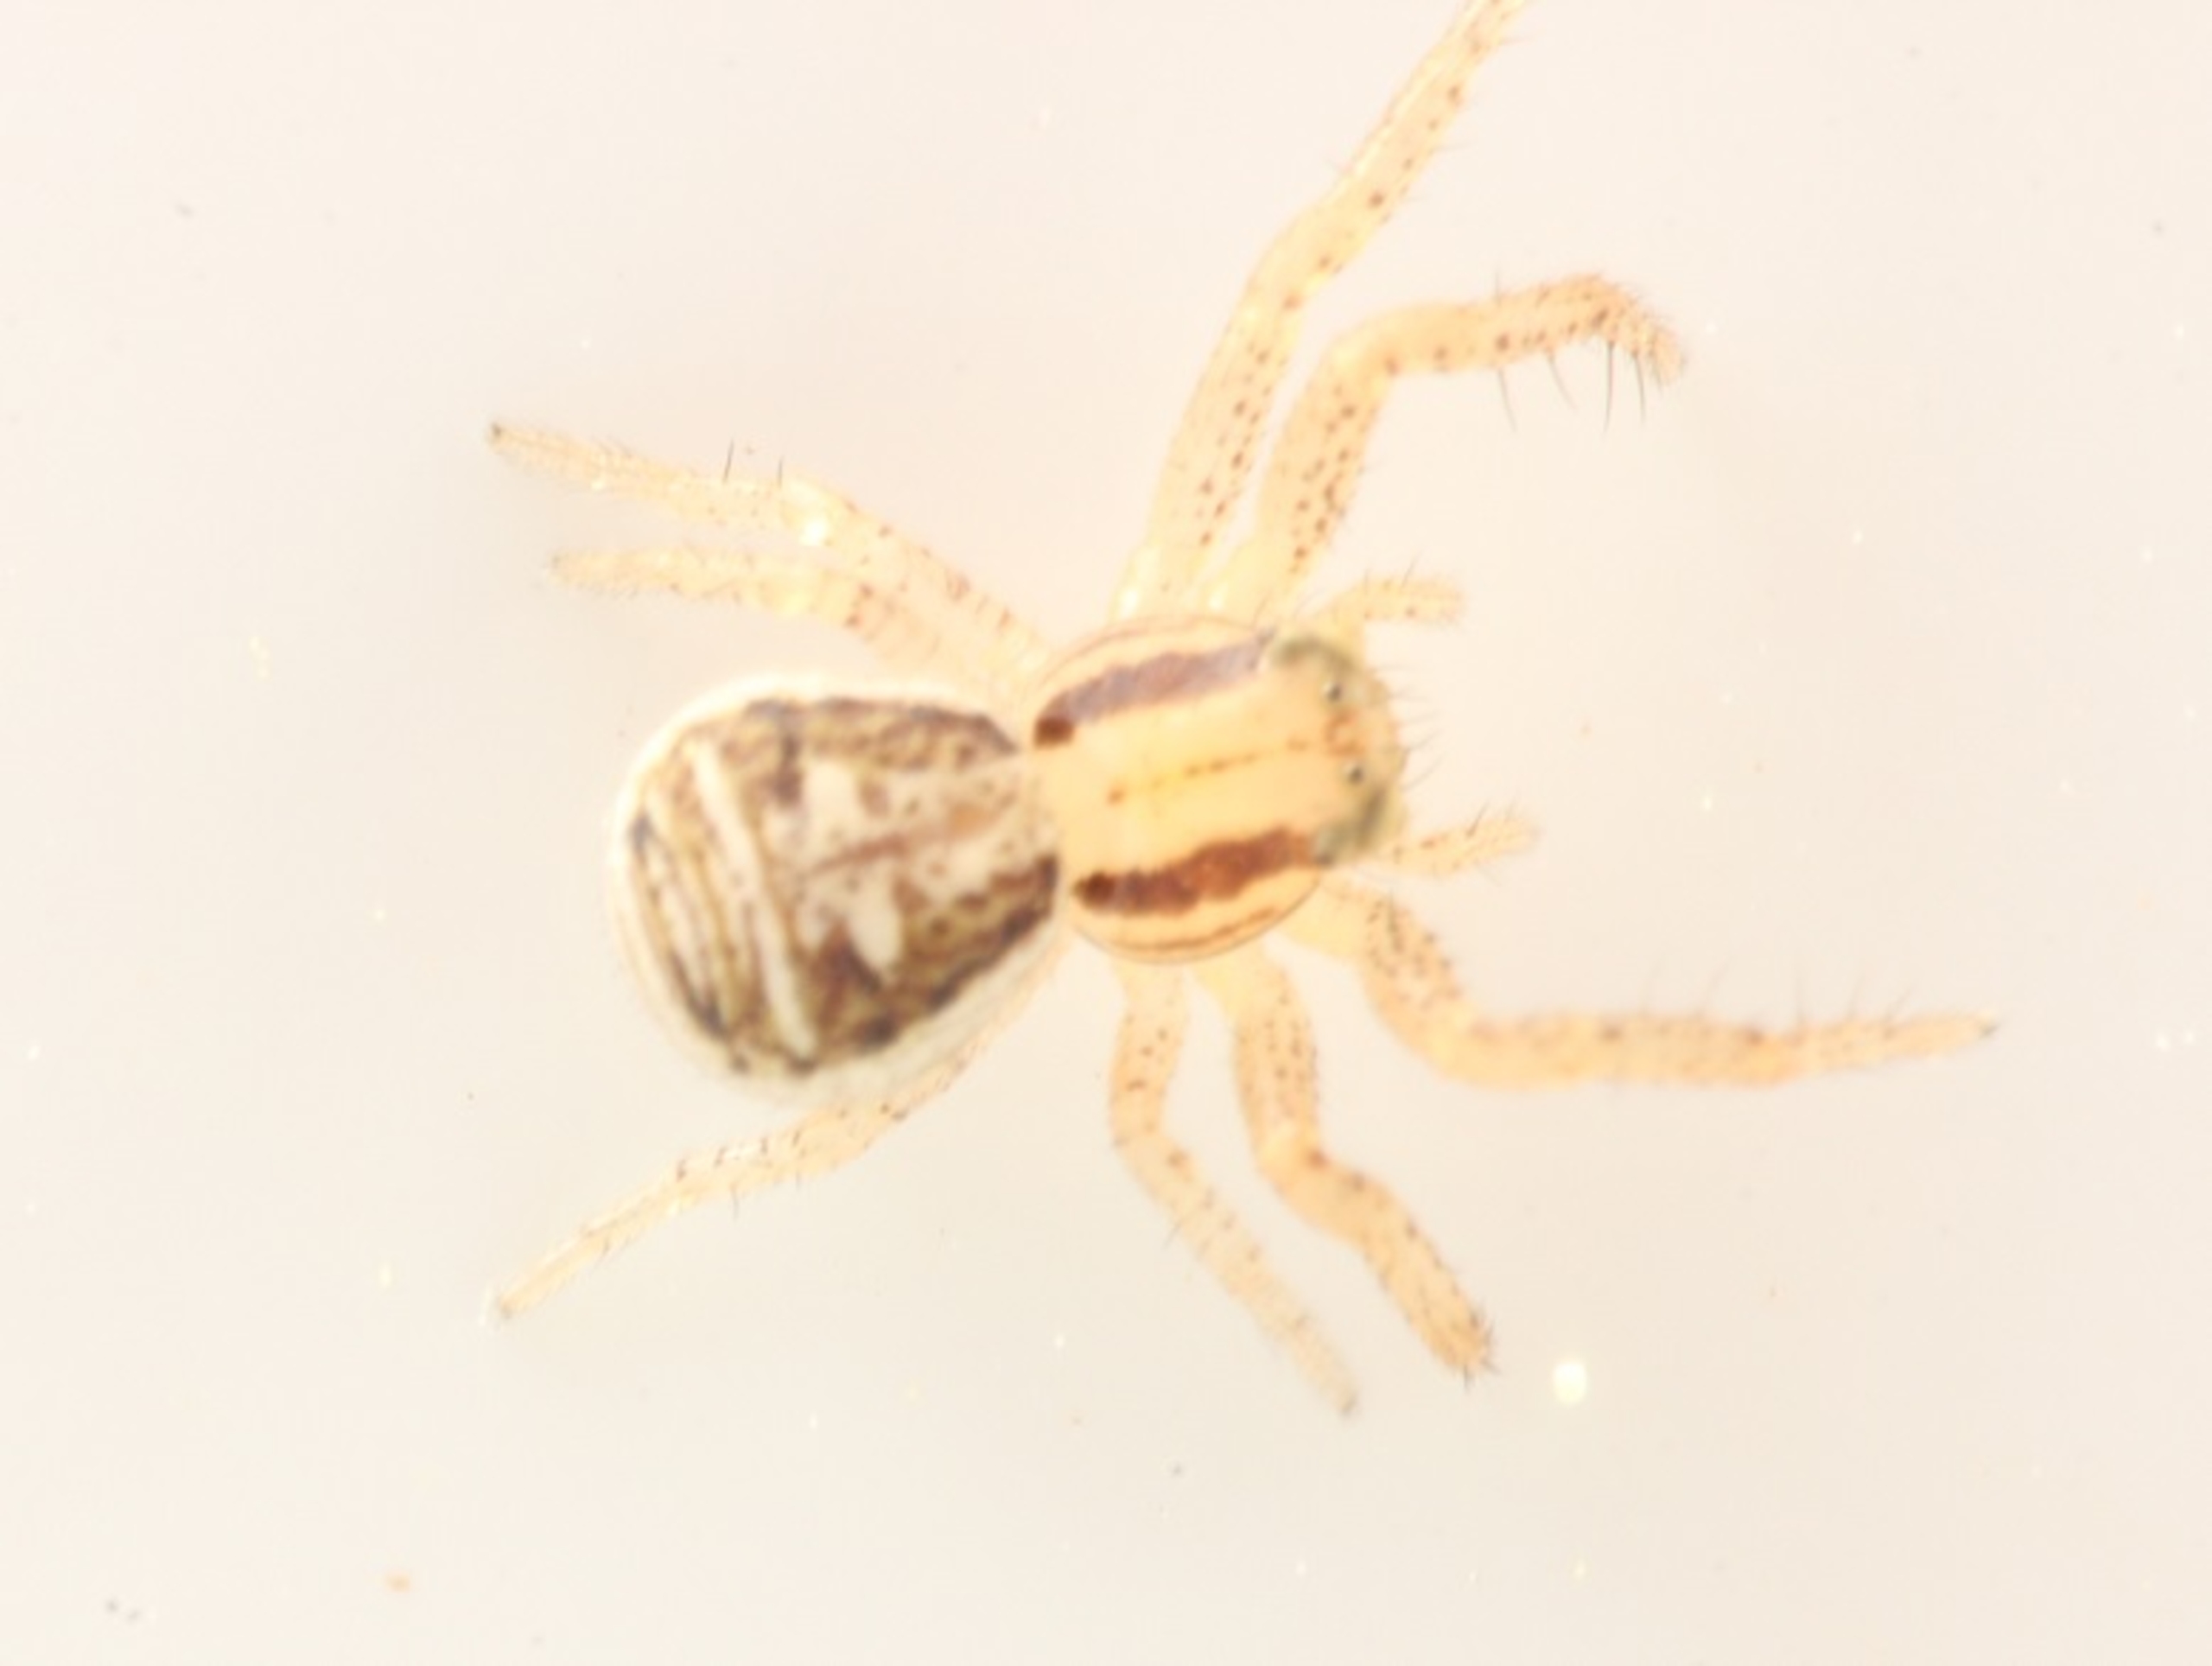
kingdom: Animalia
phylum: Arthropoda
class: Arachnida
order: Araneae
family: Thomisidae
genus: Xysticus
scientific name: Xysticus ulmi
